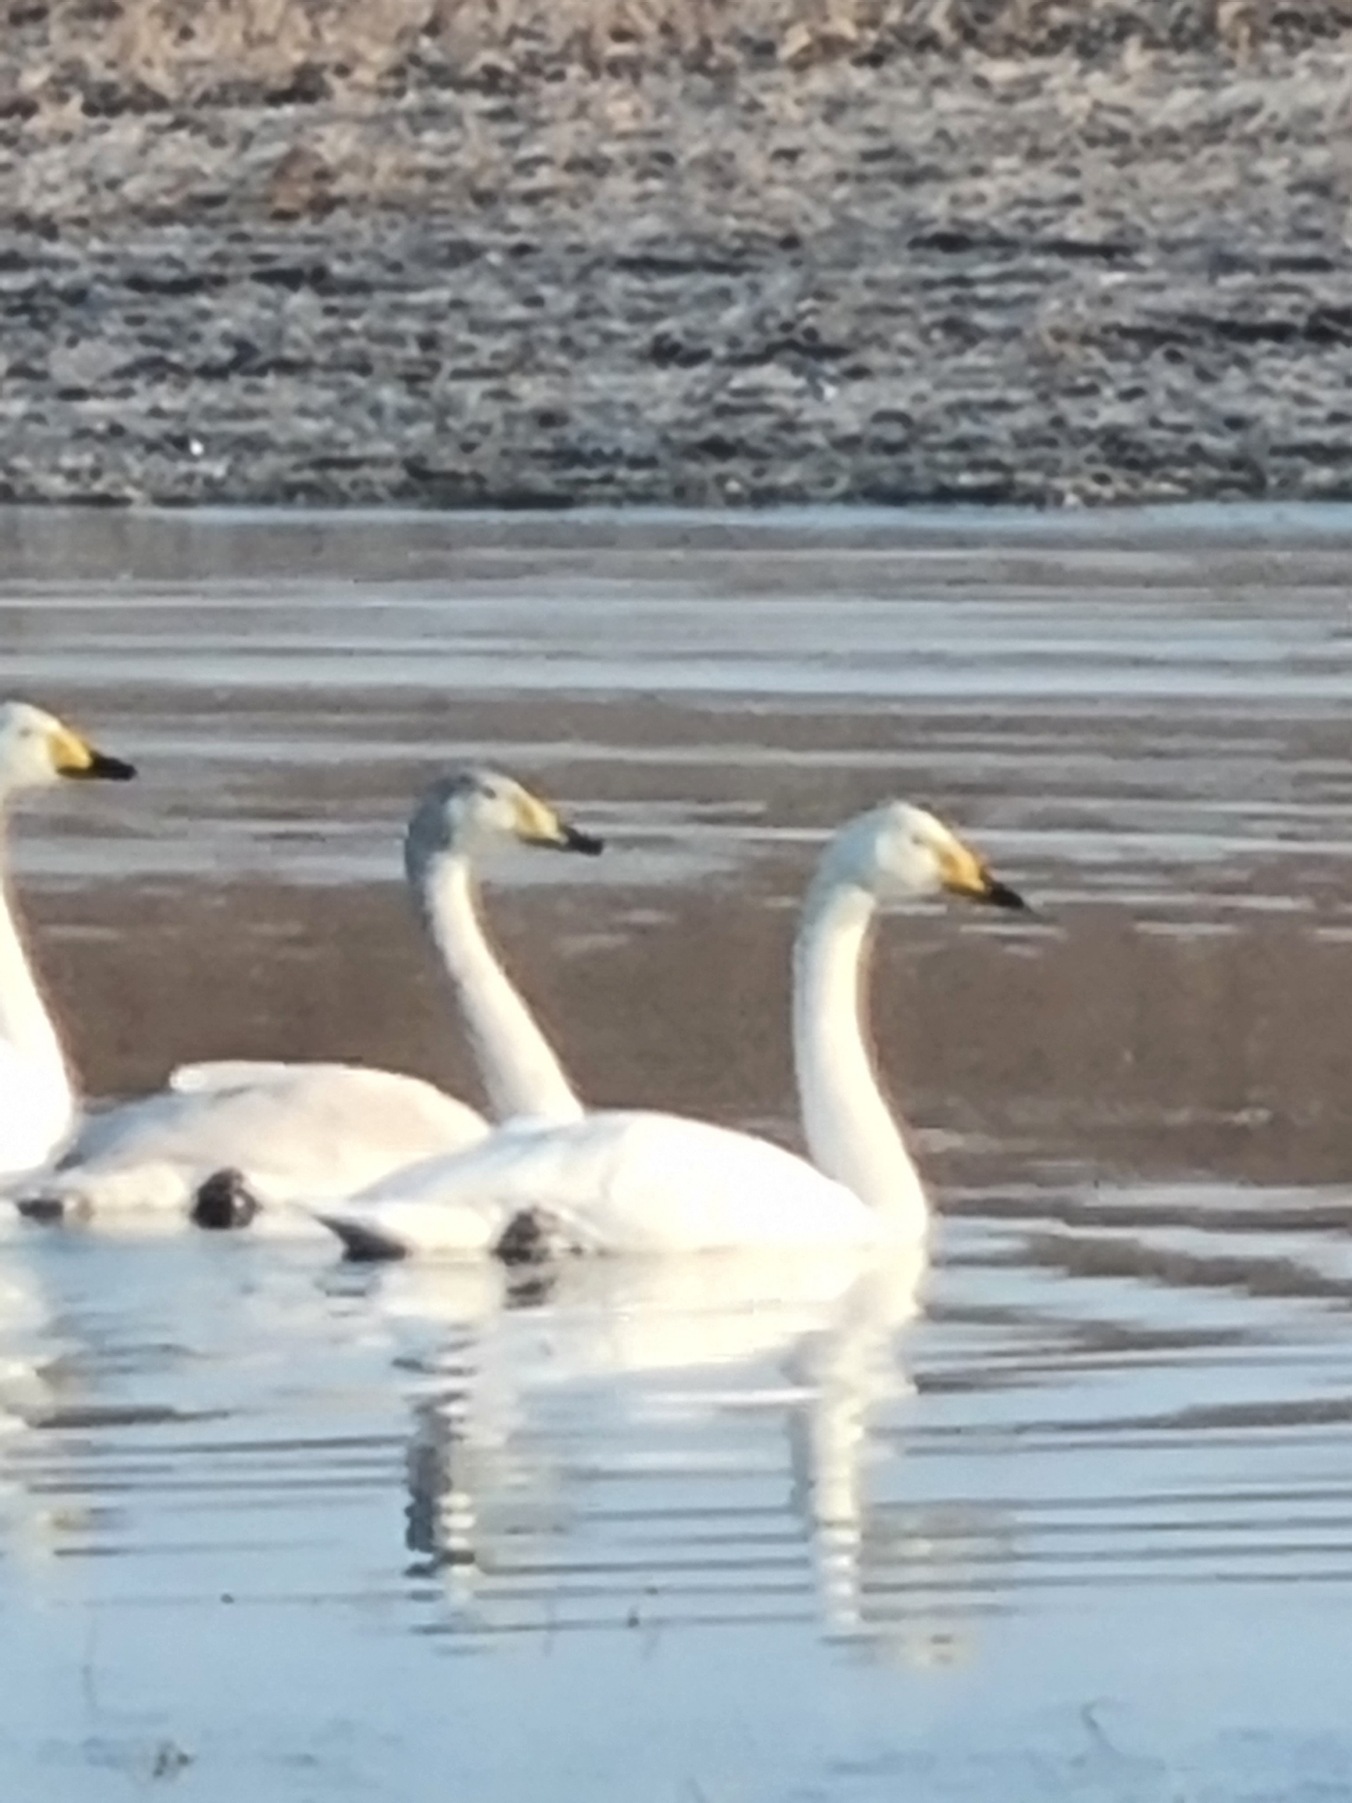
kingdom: Animalia
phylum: Chordata
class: Aves
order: Anseriformes
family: Anatidae
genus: Cygnus
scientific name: Cygnus cygnus
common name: Sangsvane
